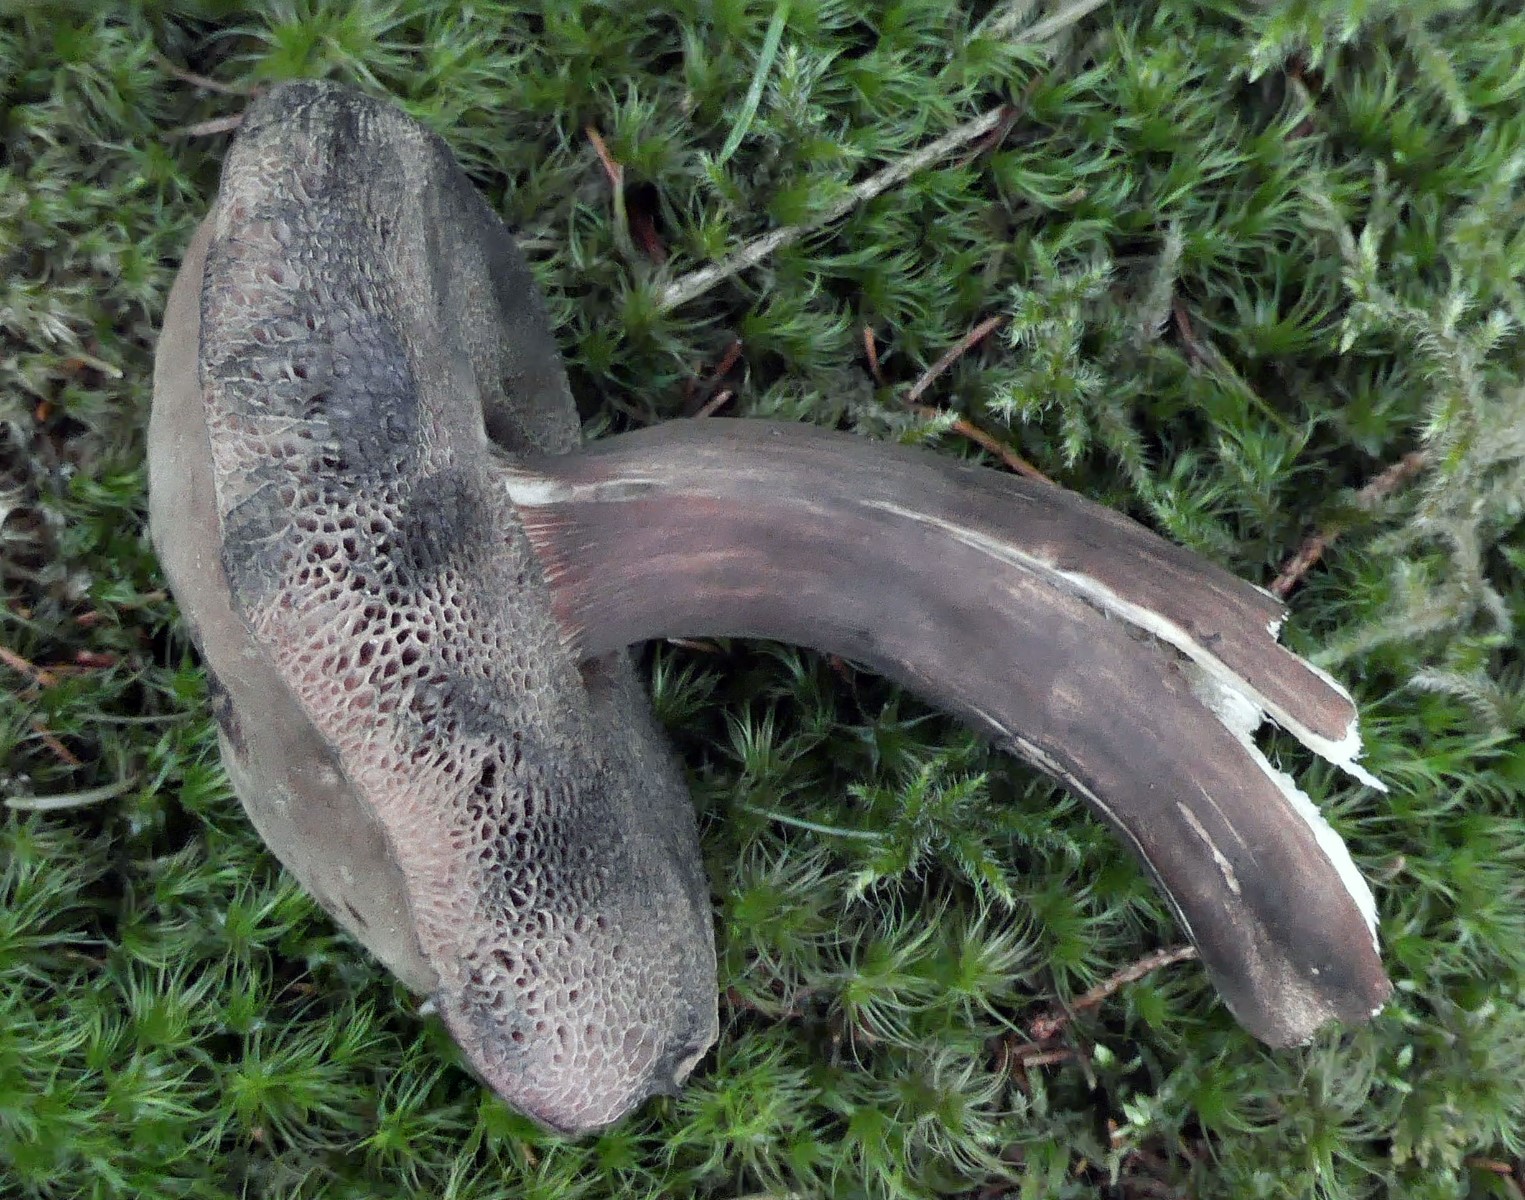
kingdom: Fungi
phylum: Basidiomycota
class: Agaricomycetes
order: Boletales
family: Boletaceae
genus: Porphyrellus
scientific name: Porphyrellus porphyrosporus
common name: sodrørhat
